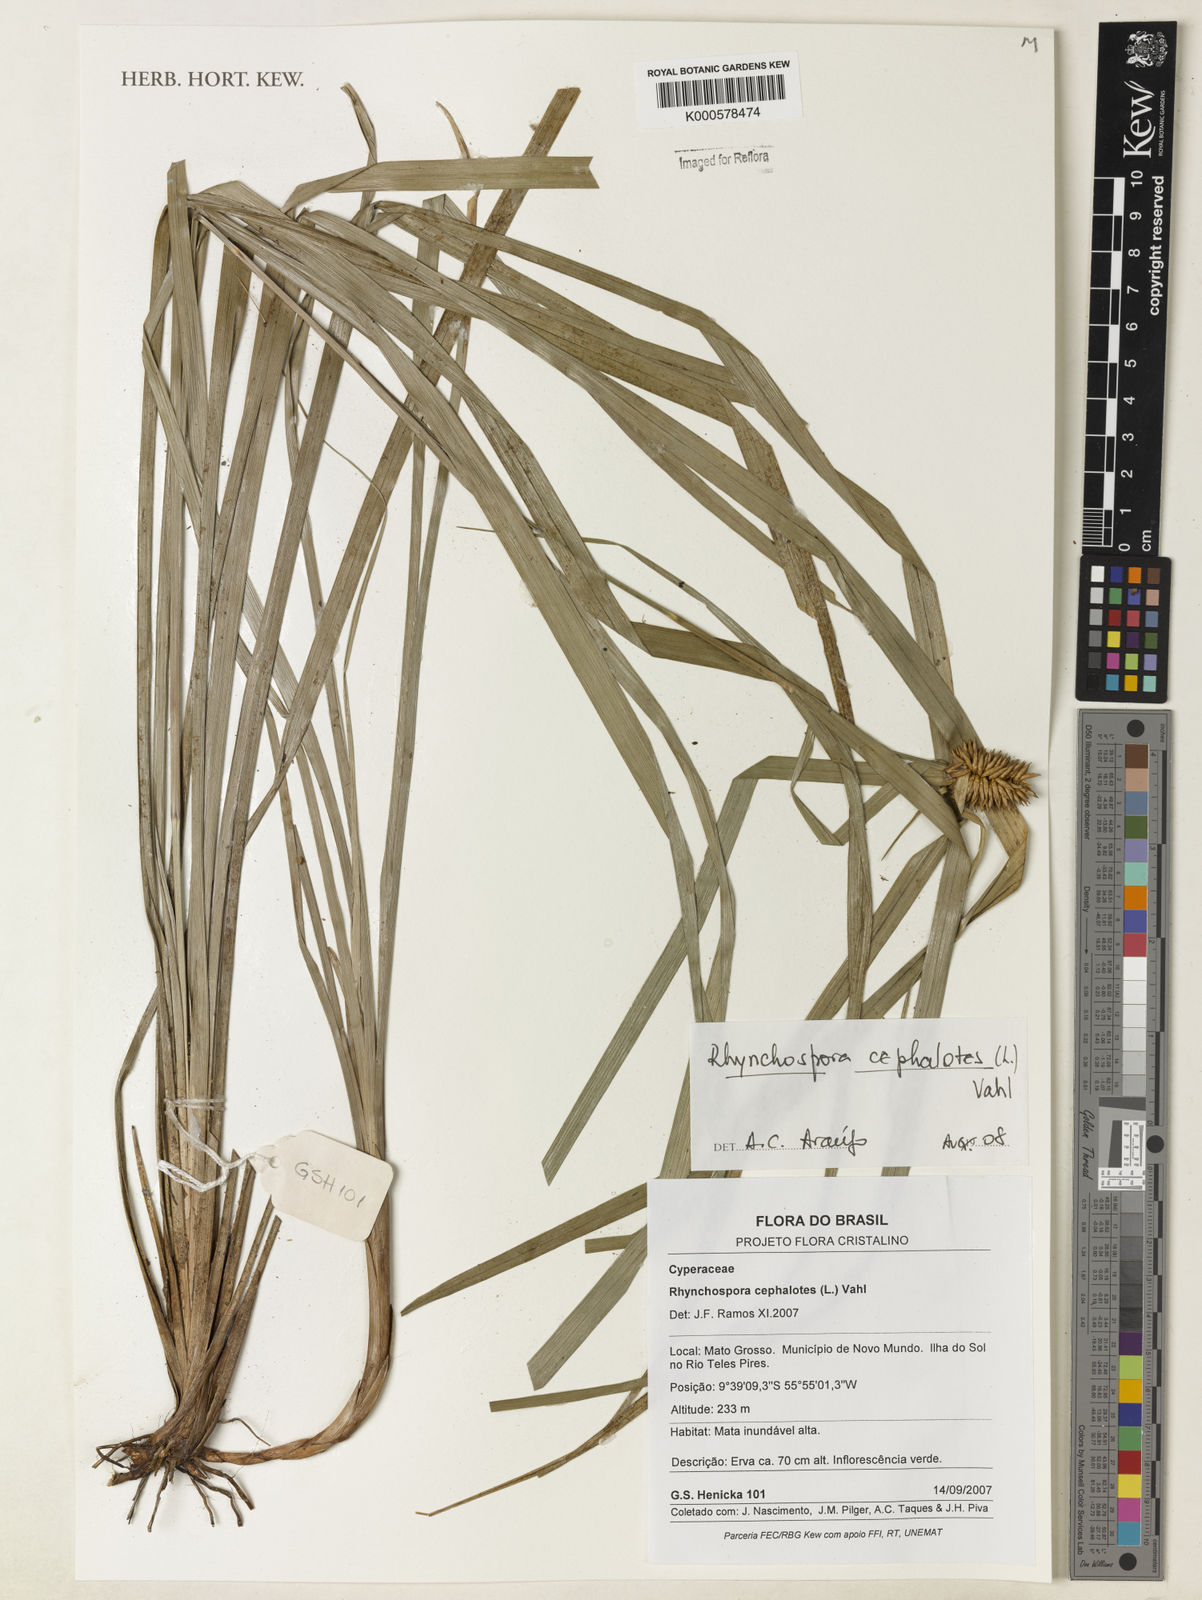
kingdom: Plantae
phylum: Tracheophyta
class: Liliopsida
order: Poales
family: Cyperaceae
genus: Rhynchospora
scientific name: Rhynchospora cephalotes
